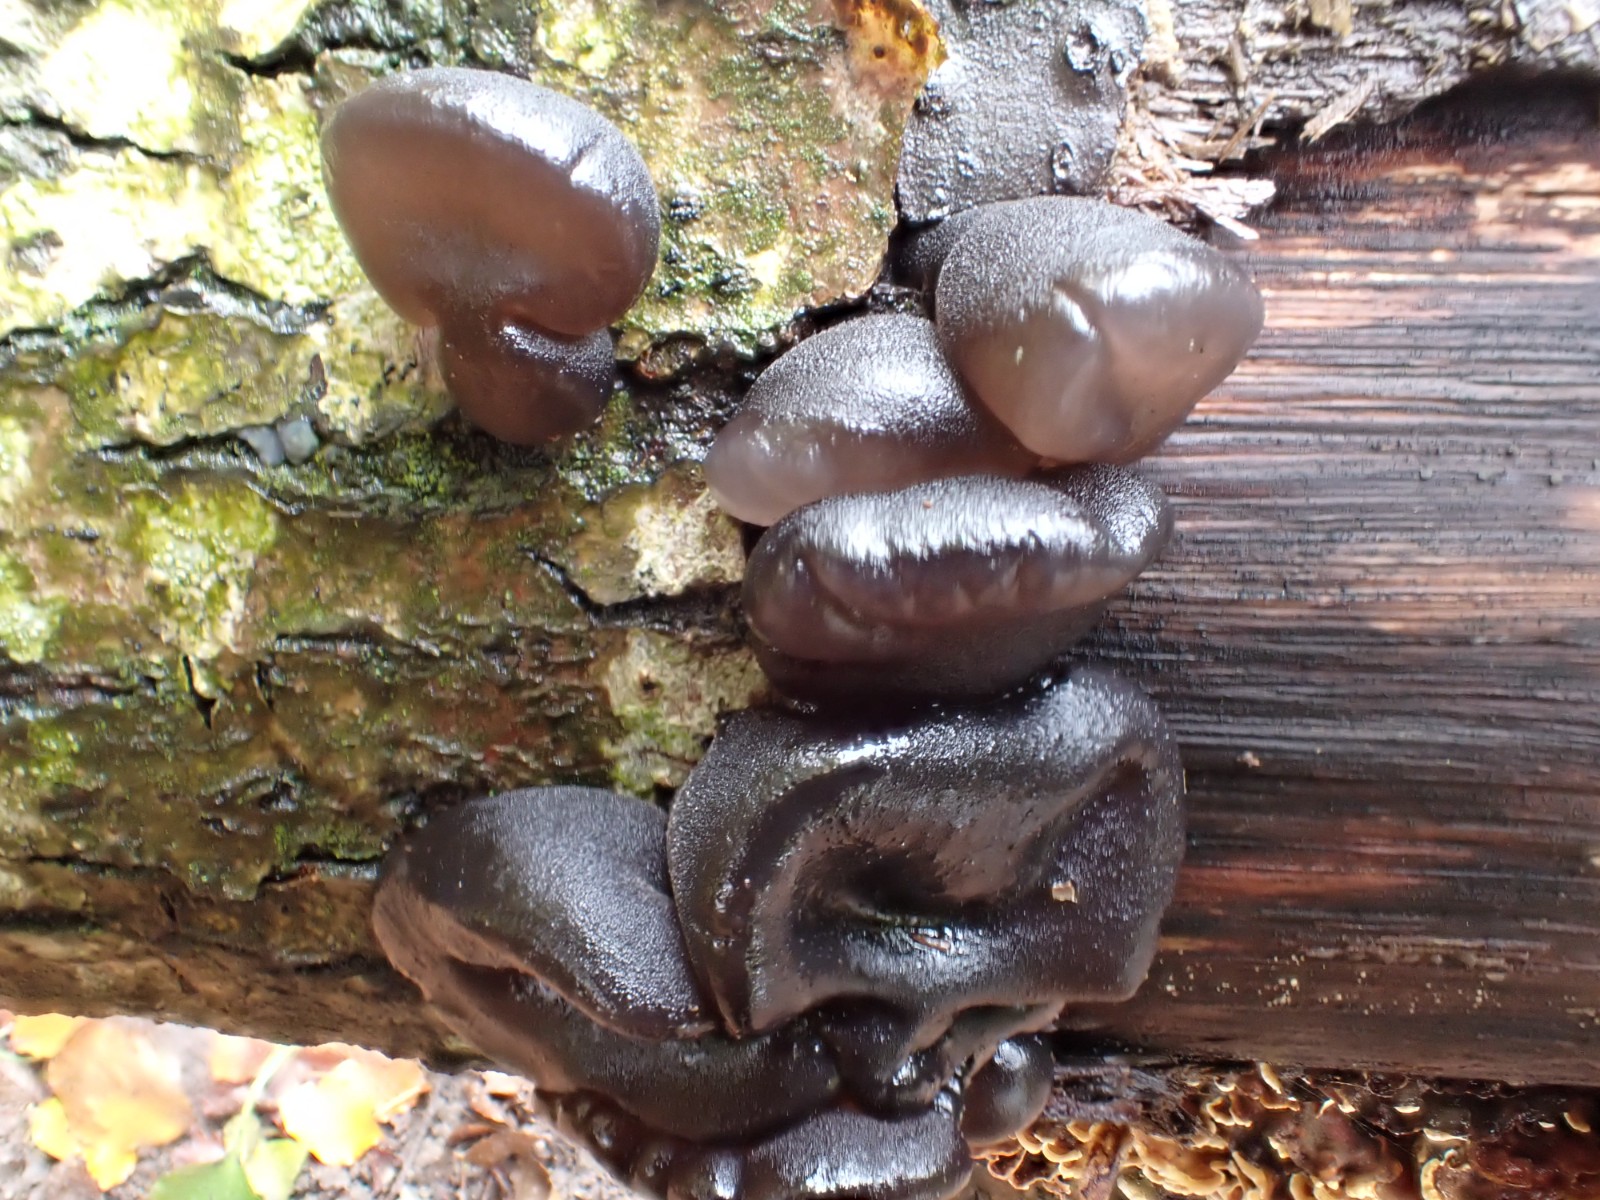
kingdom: Fungi
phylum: Basidiomycota
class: Agaricomycetes
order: Auriculariales
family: Auriculariaceae
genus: Exidia
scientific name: Exidia glandulosa
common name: ege-bævretop
